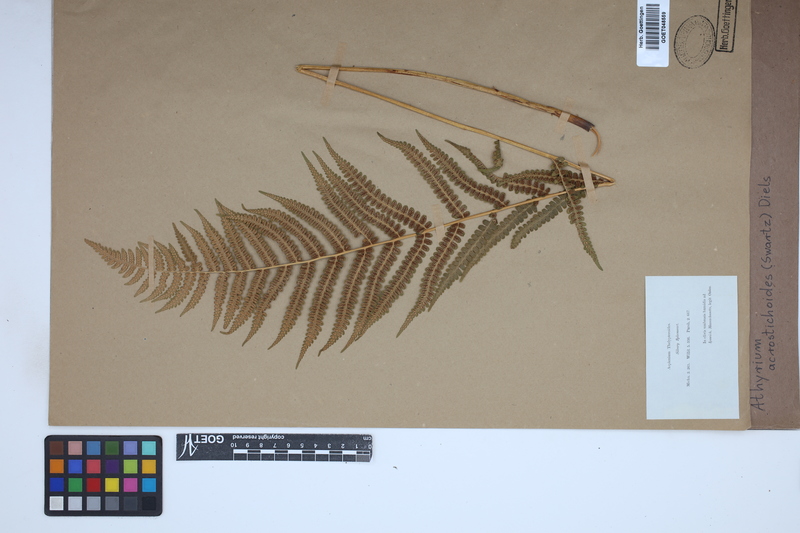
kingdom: Plantae
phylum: Tracheophyta
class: Polypodiopsida
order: Polypodiales
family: Athyriaceae
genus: Deparia
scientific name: Deparia acrostichoides
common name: Silver false spleenwort
